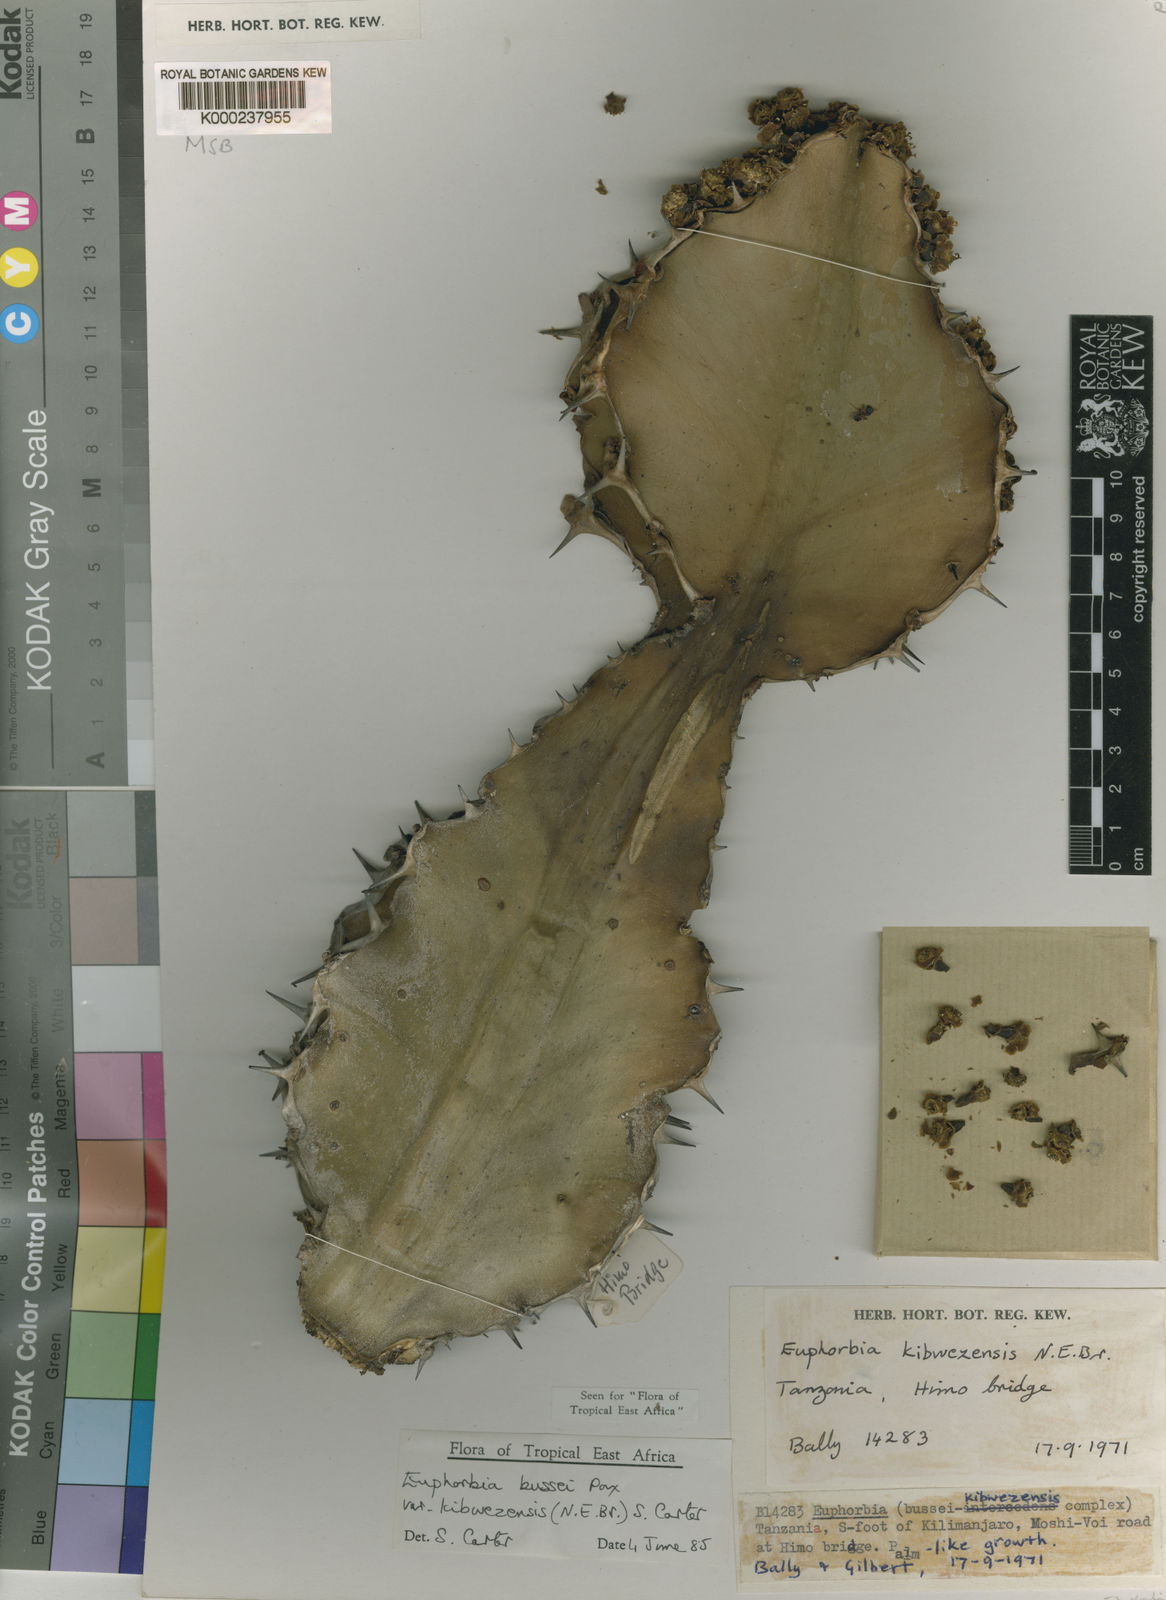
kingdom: Plantae
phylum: Tracheophyta
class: Magnoliopsida
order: Malpighiales
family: Euphorbiaceae
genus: Euphorbia
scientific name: Euphorbia bussei
